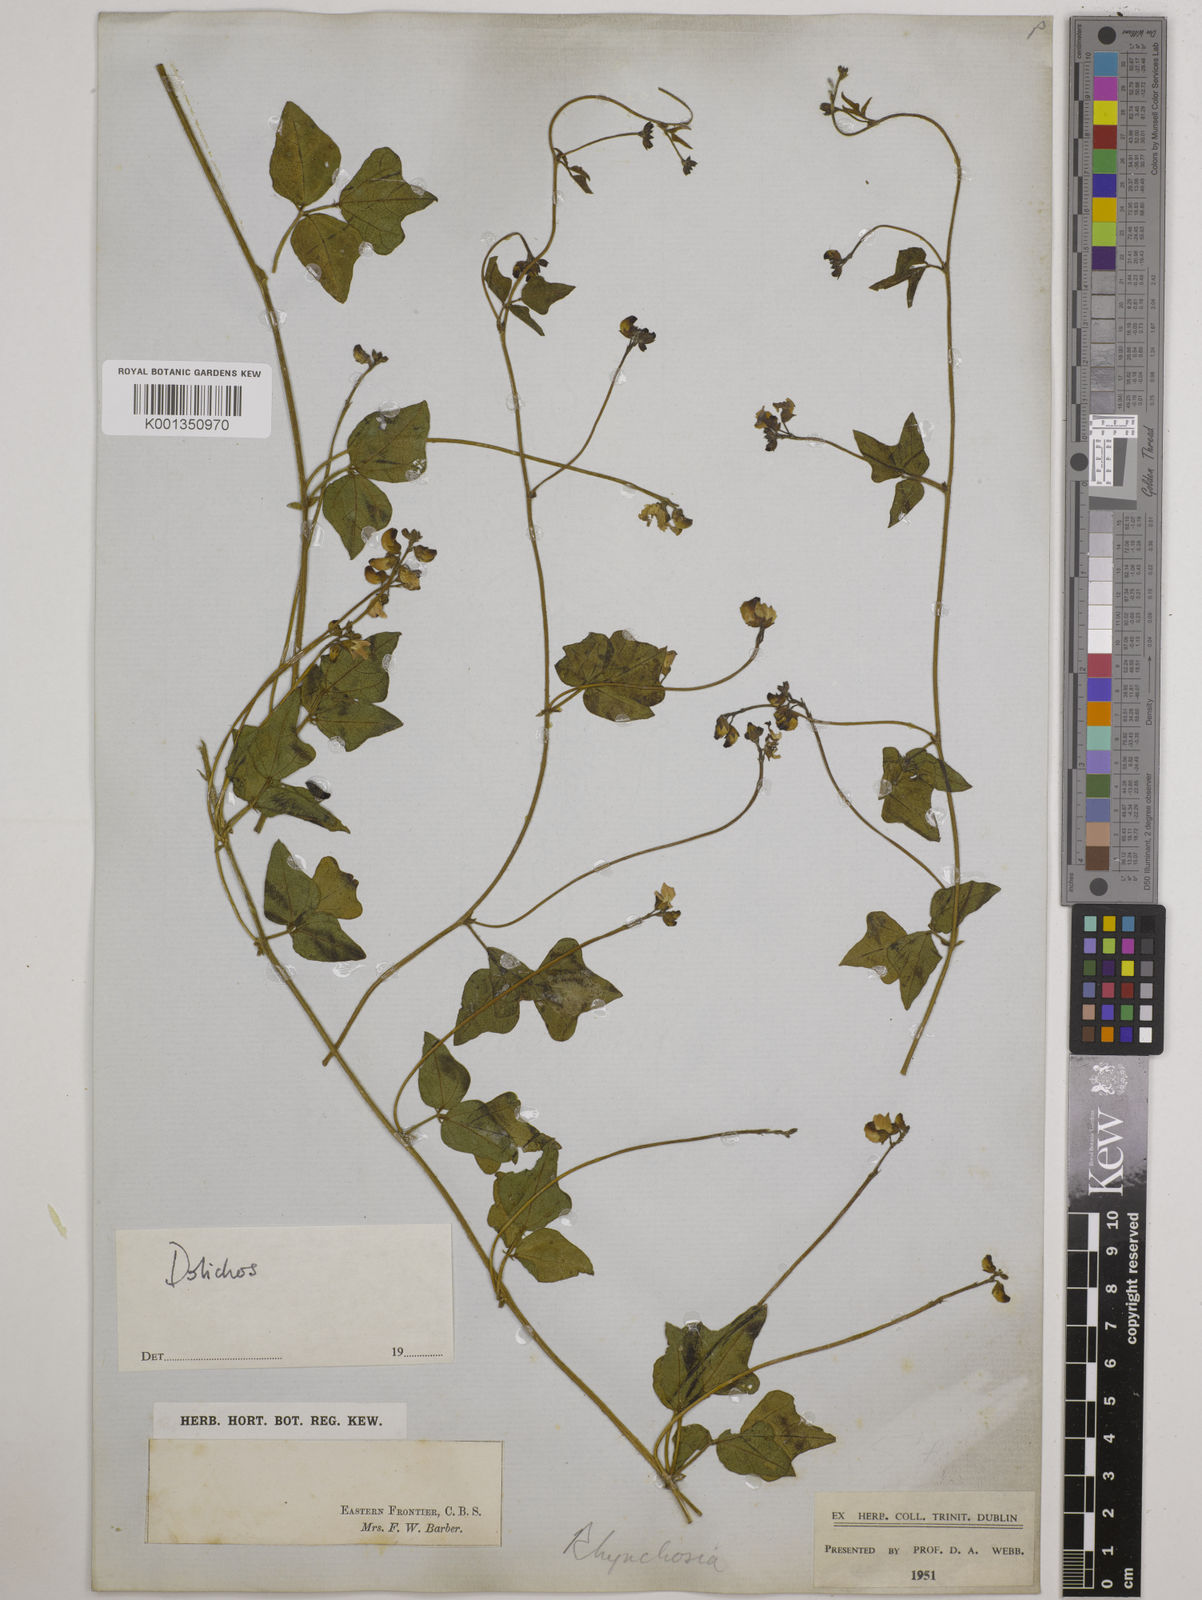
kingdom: Plantae
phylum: Tracheophyta
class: Magnoliopsida
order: Fabales
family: Fabaceae
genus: Dolichos
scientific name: Dolichos
